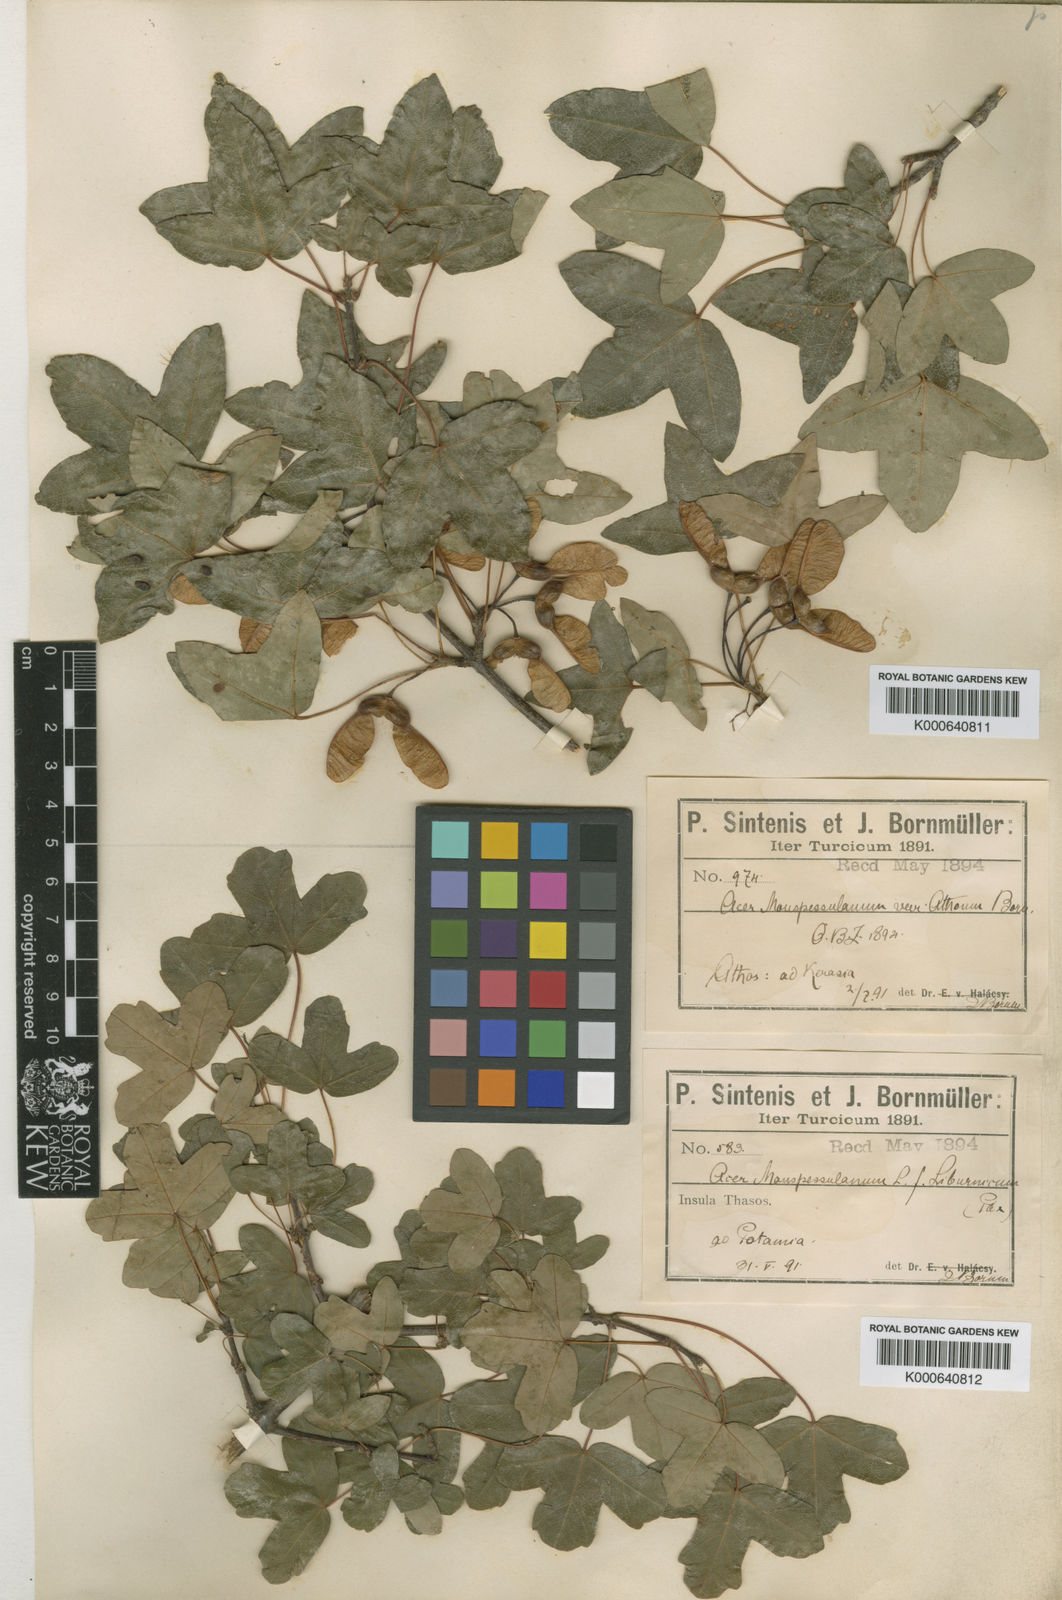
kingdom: Plantae
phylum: Tracheophyta
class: Magnoliopsida
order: Sapindales
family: Sapindaceae
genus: Acer
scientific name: Acer monspessulanum
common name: Montpellier maple
